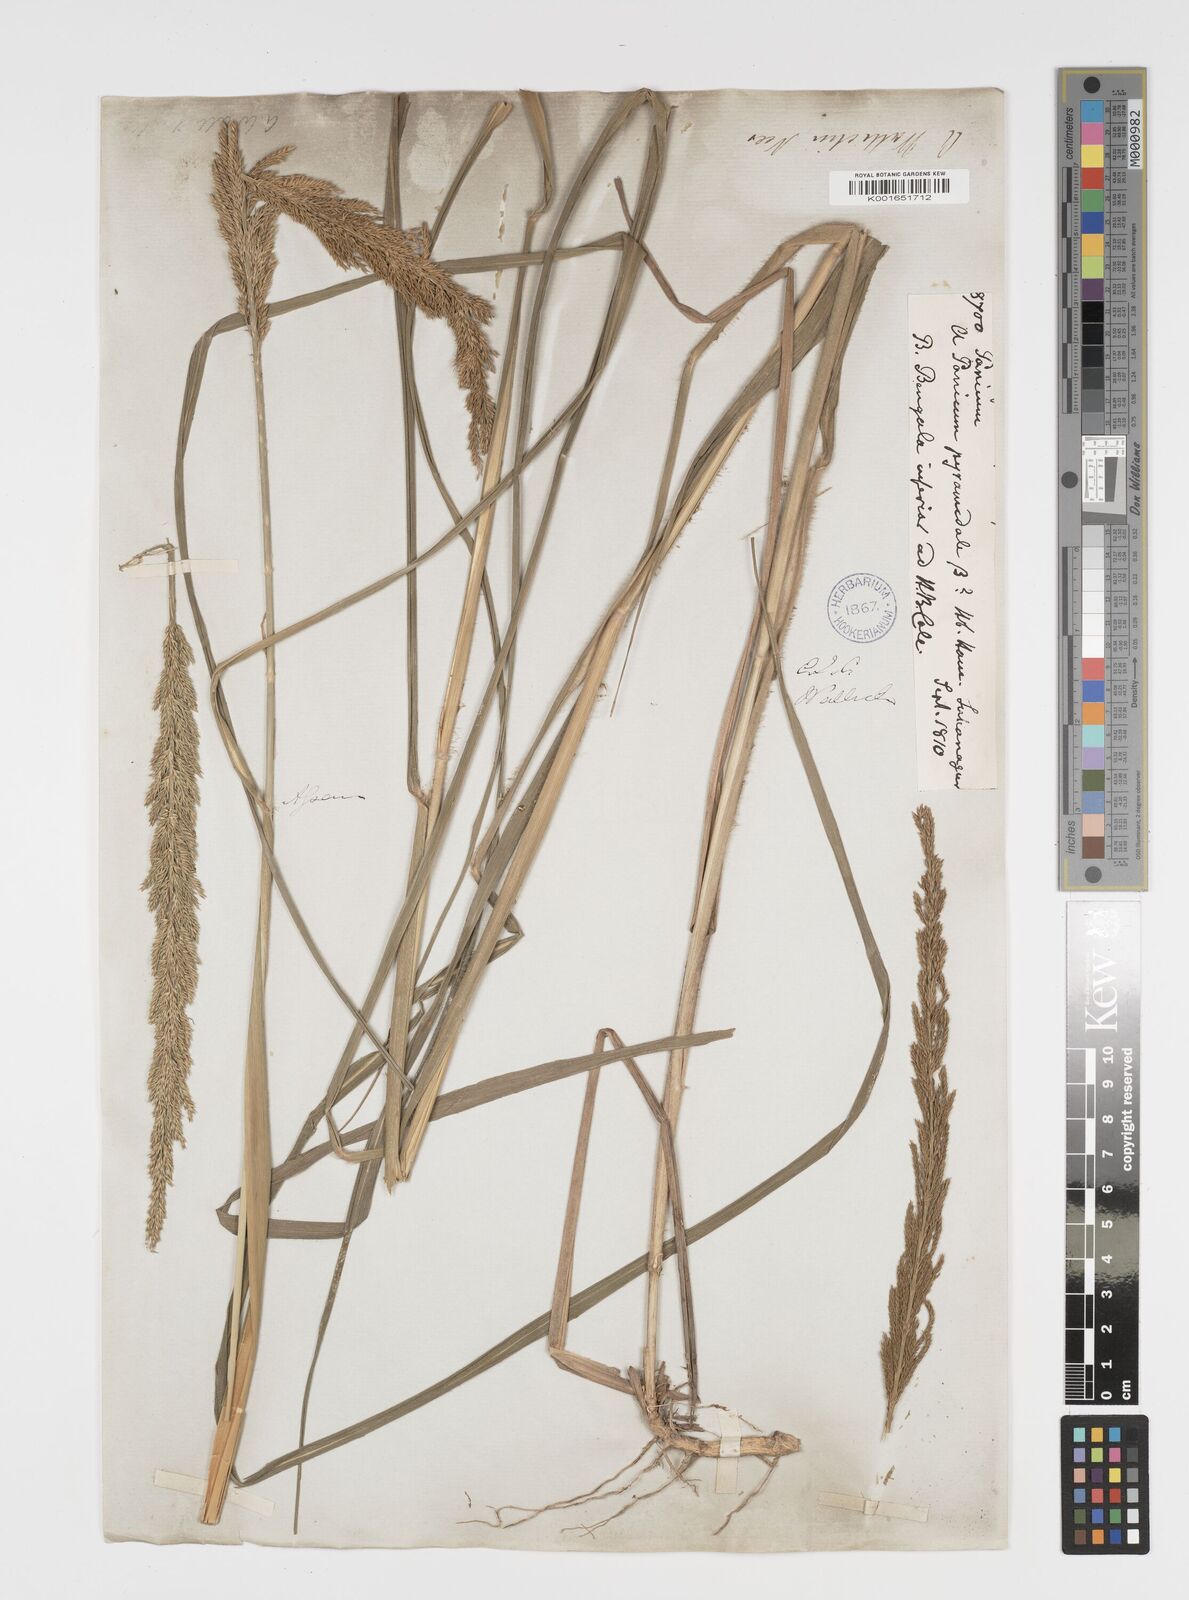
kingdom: Plantae
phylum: Tracheophyta
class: Liliopsida
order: Poales
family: Poaceae
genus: Arundinella
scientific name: Arundinella bengalensis
